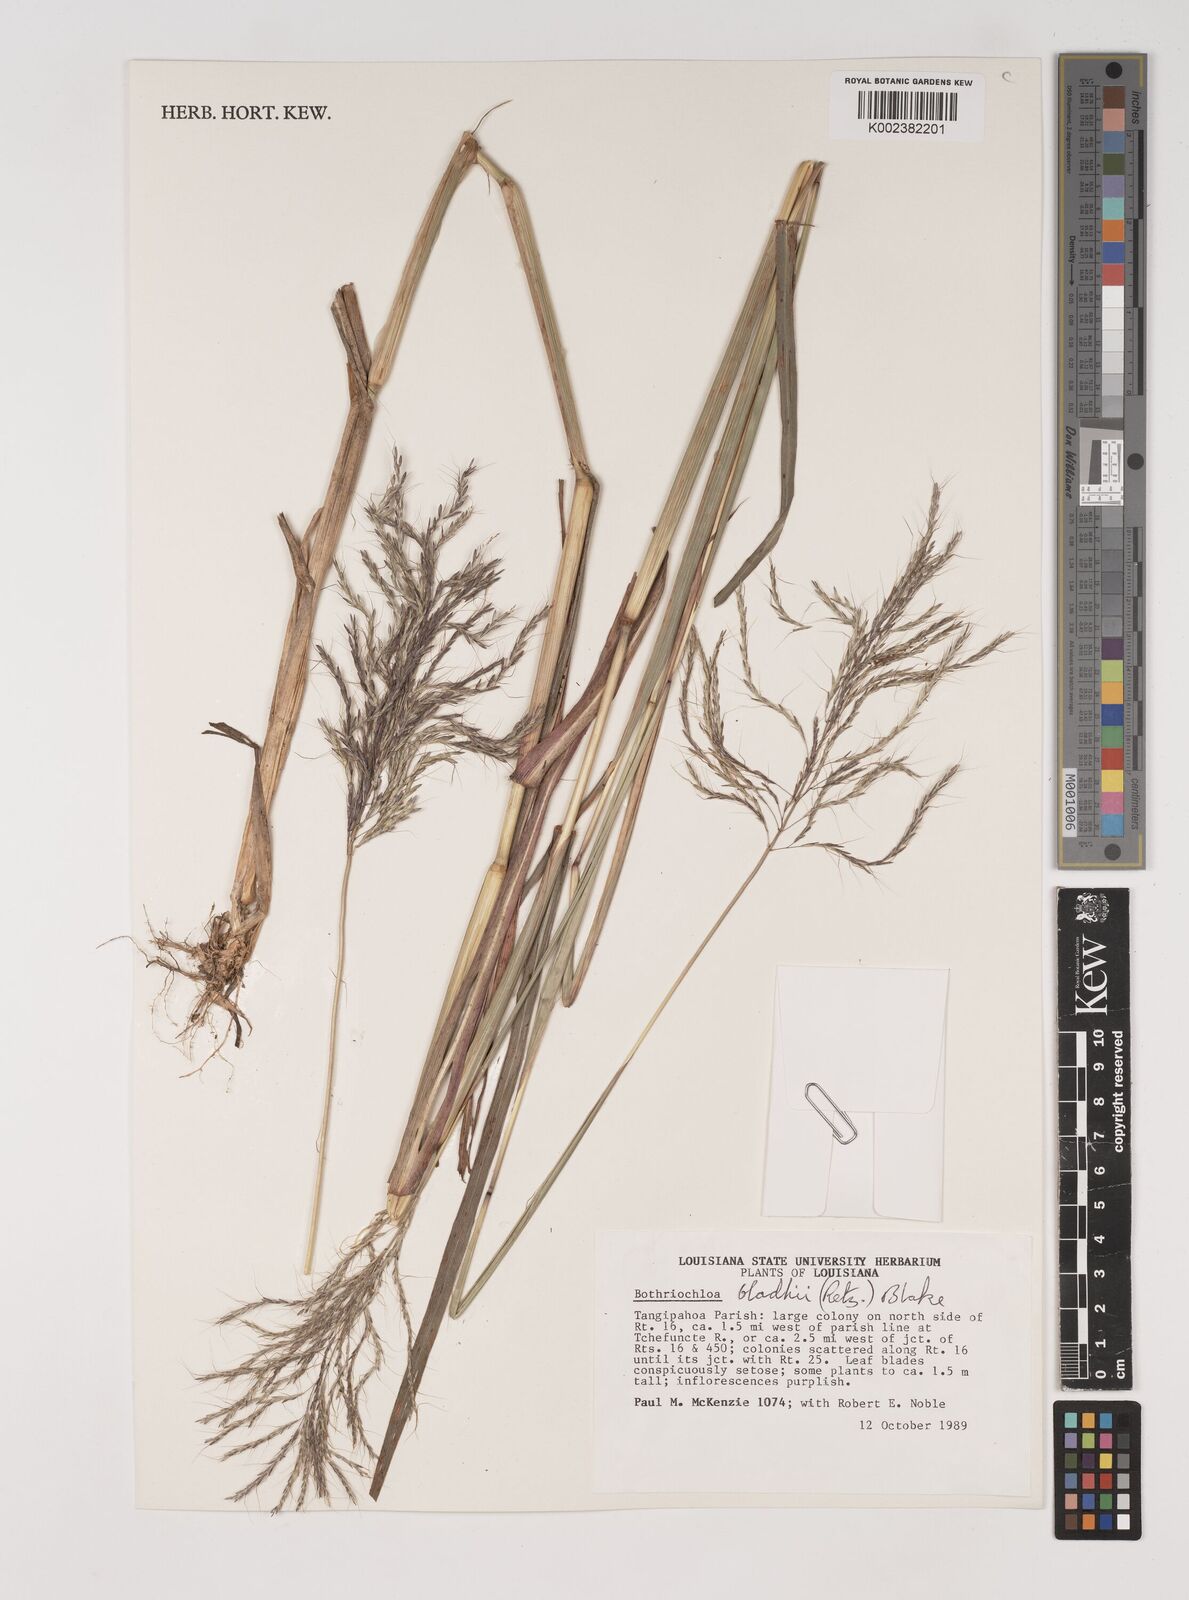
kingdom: Plantae
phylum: Tracheophyta
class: Liliopsida
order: Poales
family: Poaceae
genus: Bothriochloa
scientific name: Bothriochloa bladhii
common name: Caucasian bluestem
